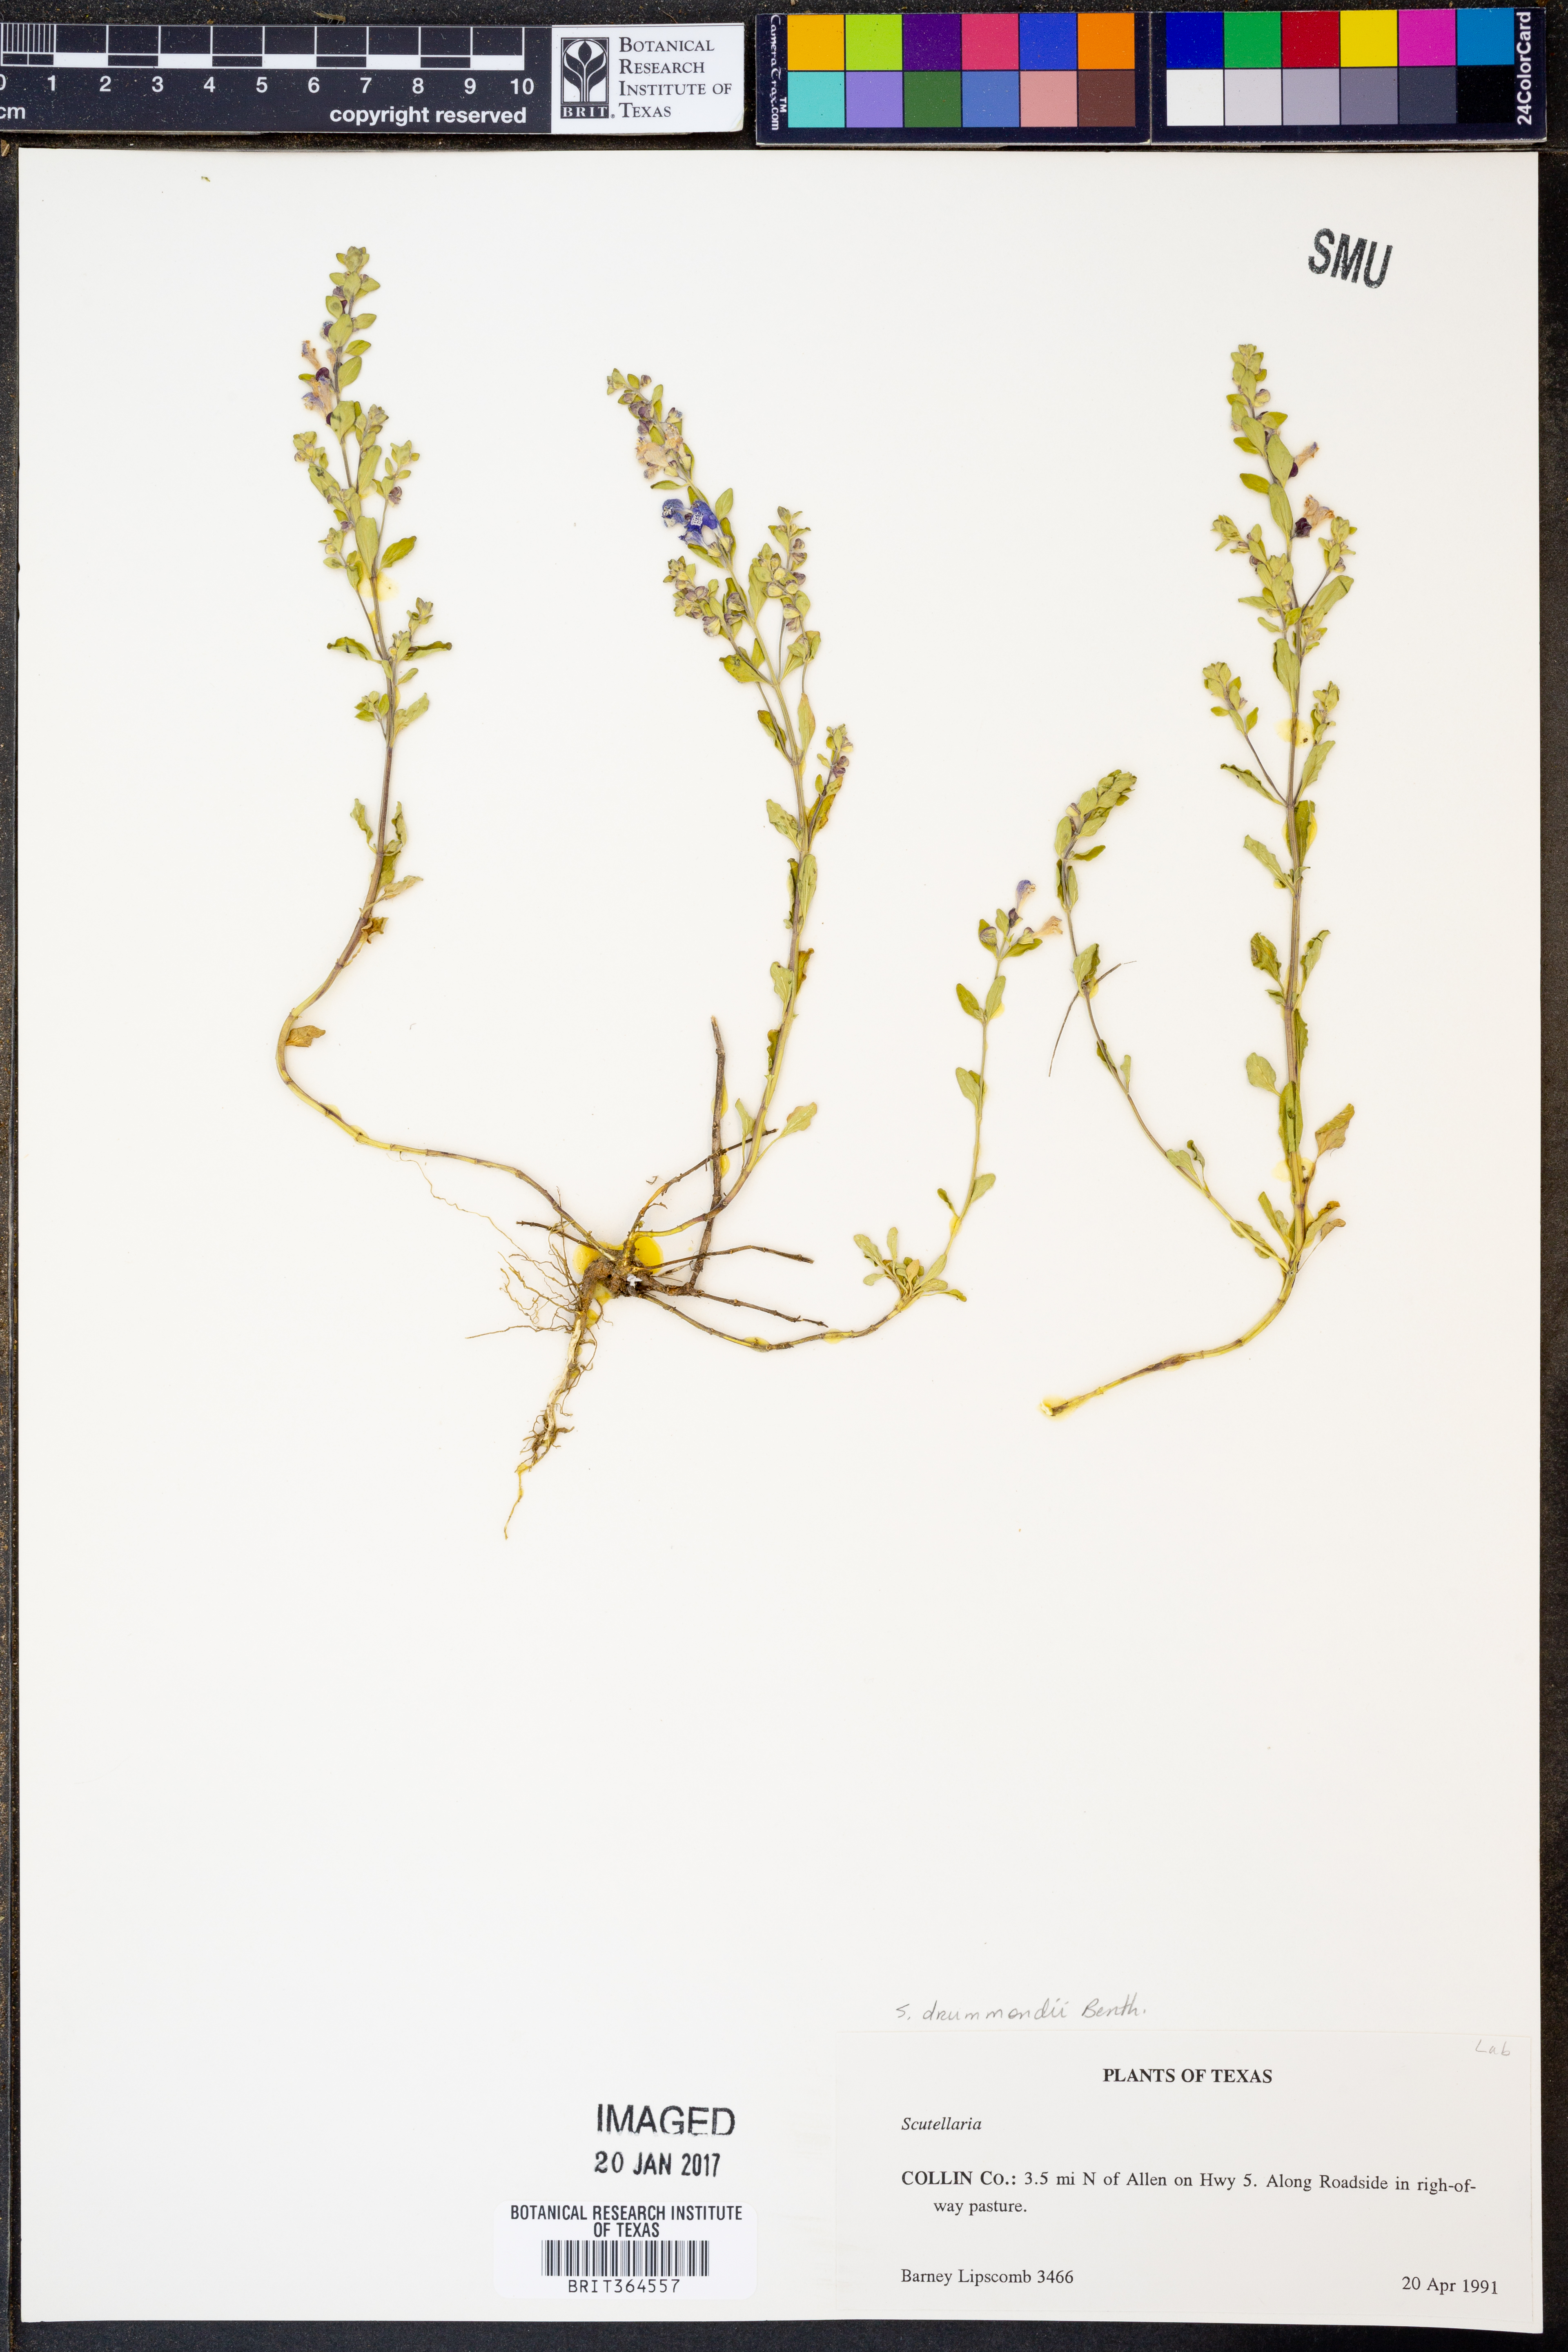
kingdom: Plantae
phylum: Tracheophyta
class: Magnoliopsida
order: Lamiales
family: Lamiaceae
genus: Scutellaria
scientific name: Scutellaria drummondii
